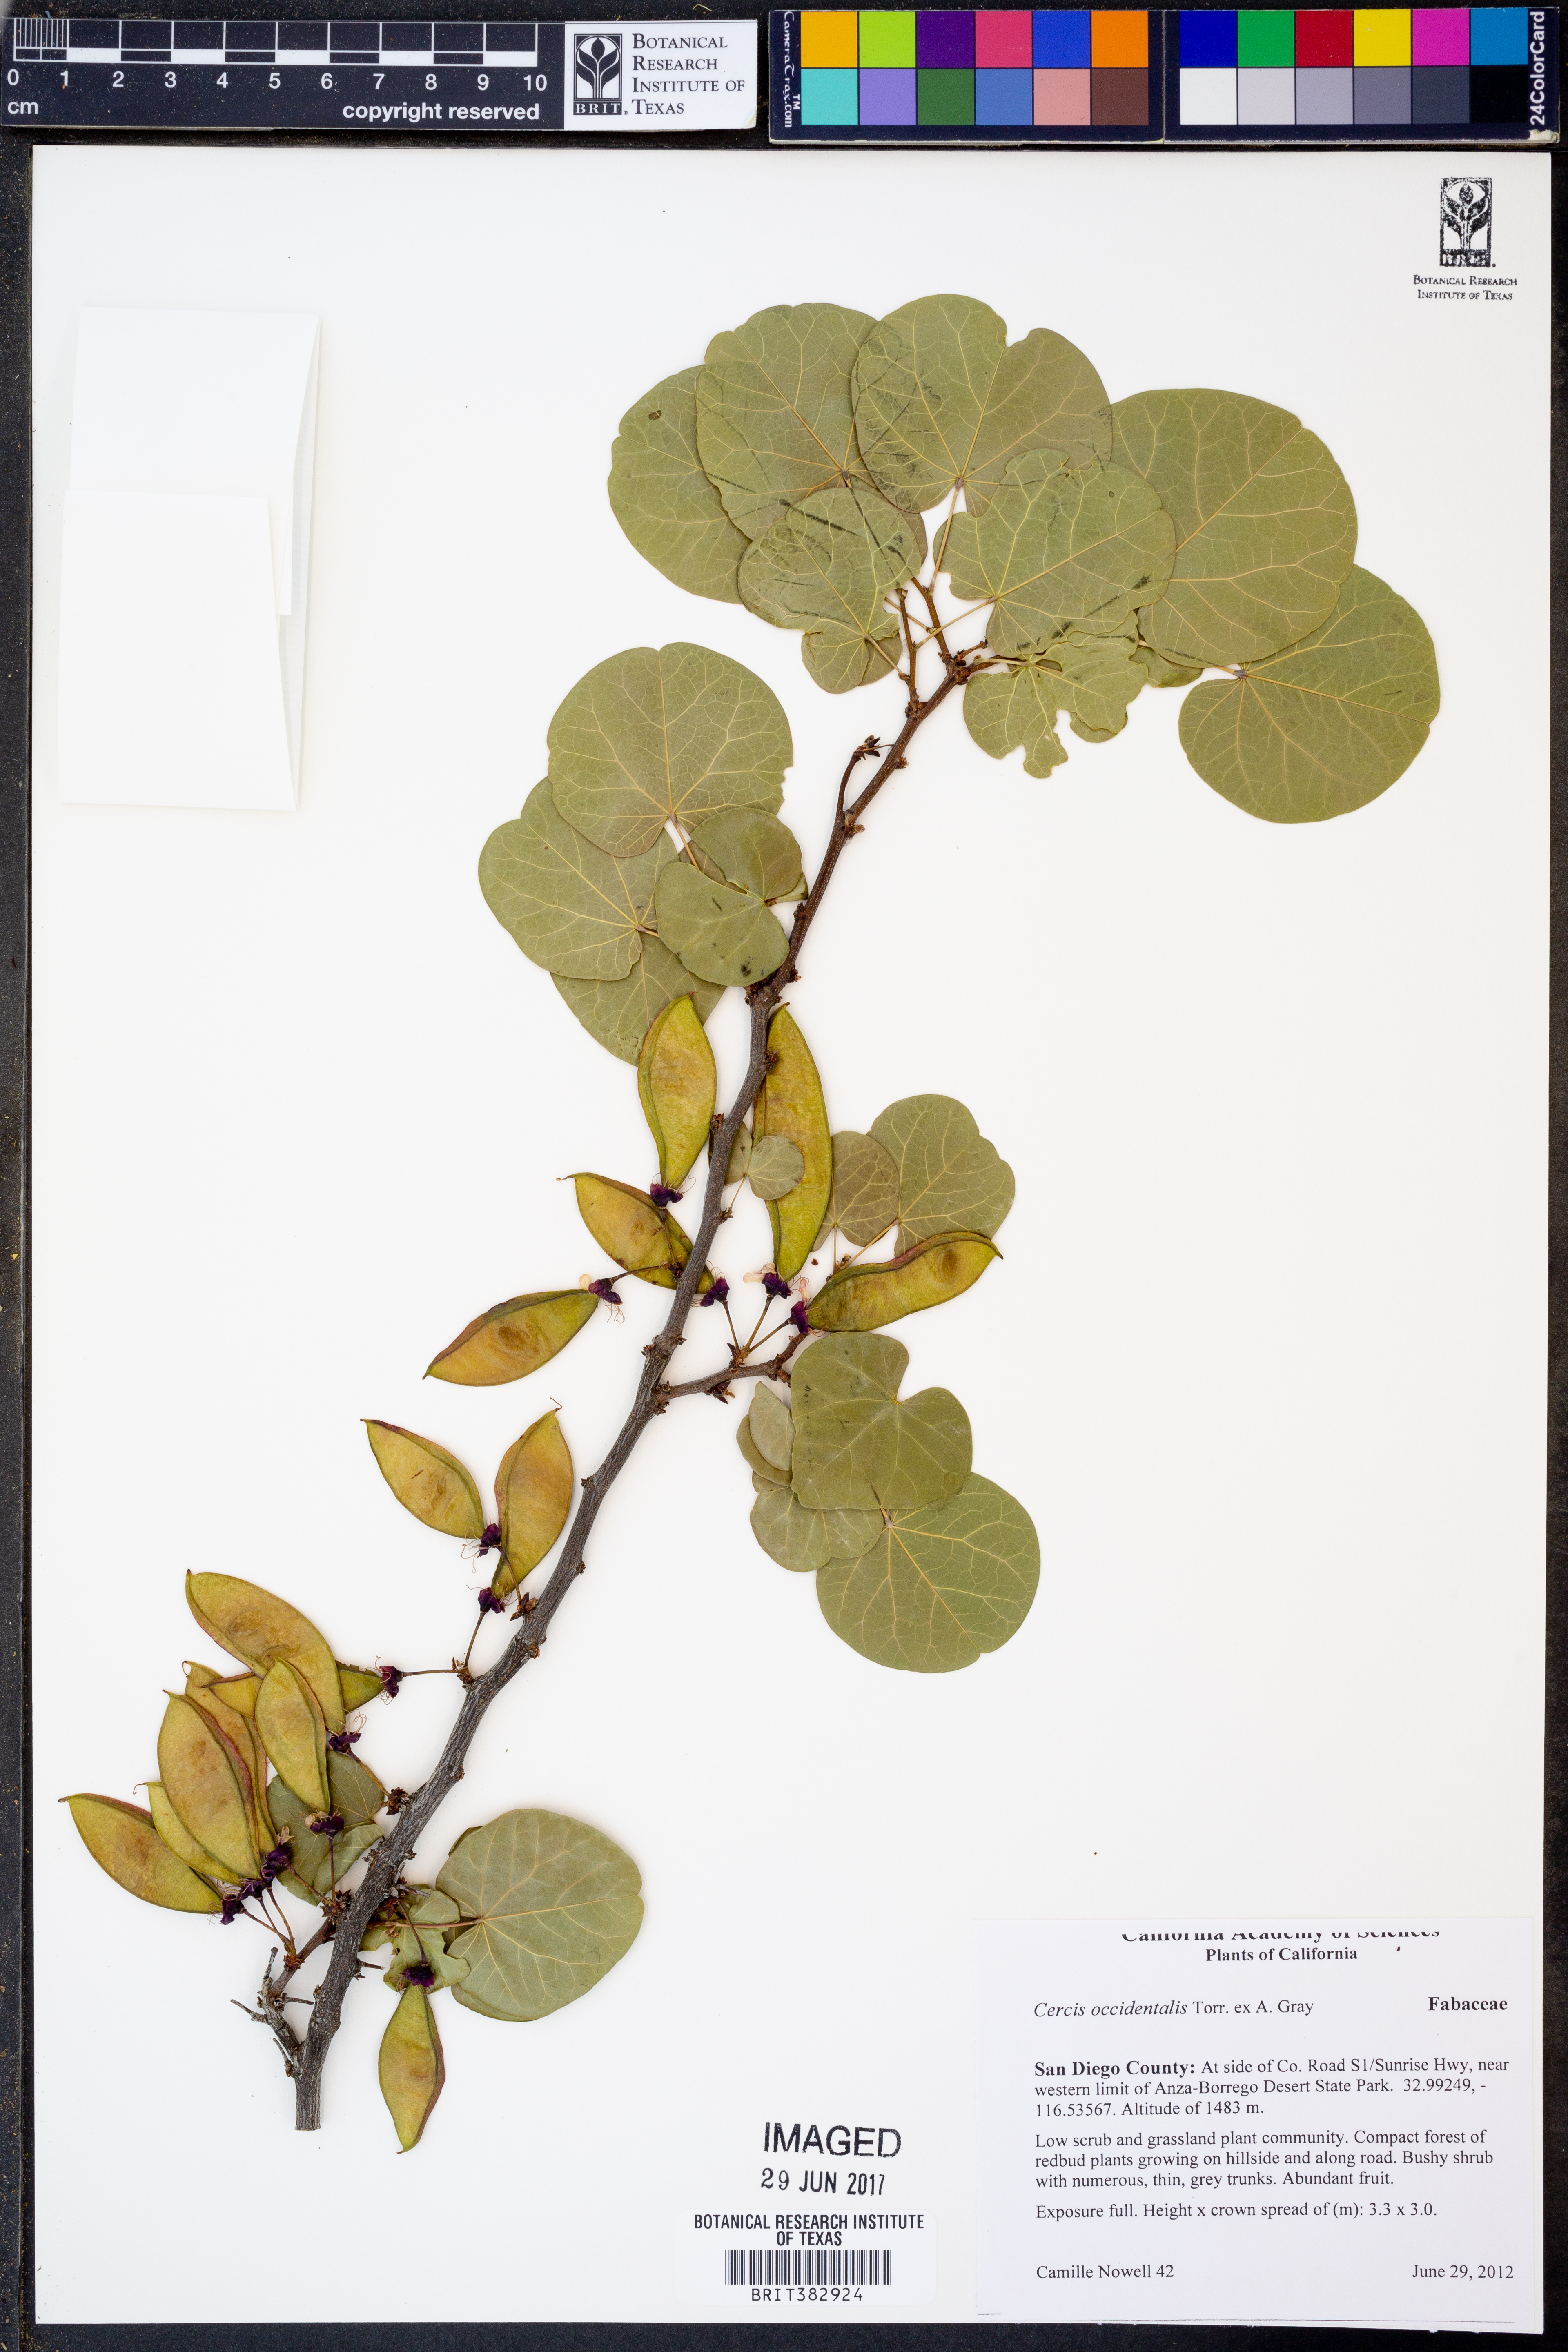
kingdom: Plantae
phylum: Tracheophyta
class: Magnoliopsida
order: Fabales
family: Fabaceae
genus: Cercis
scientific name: Cercis occidentalis
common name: California redbud
